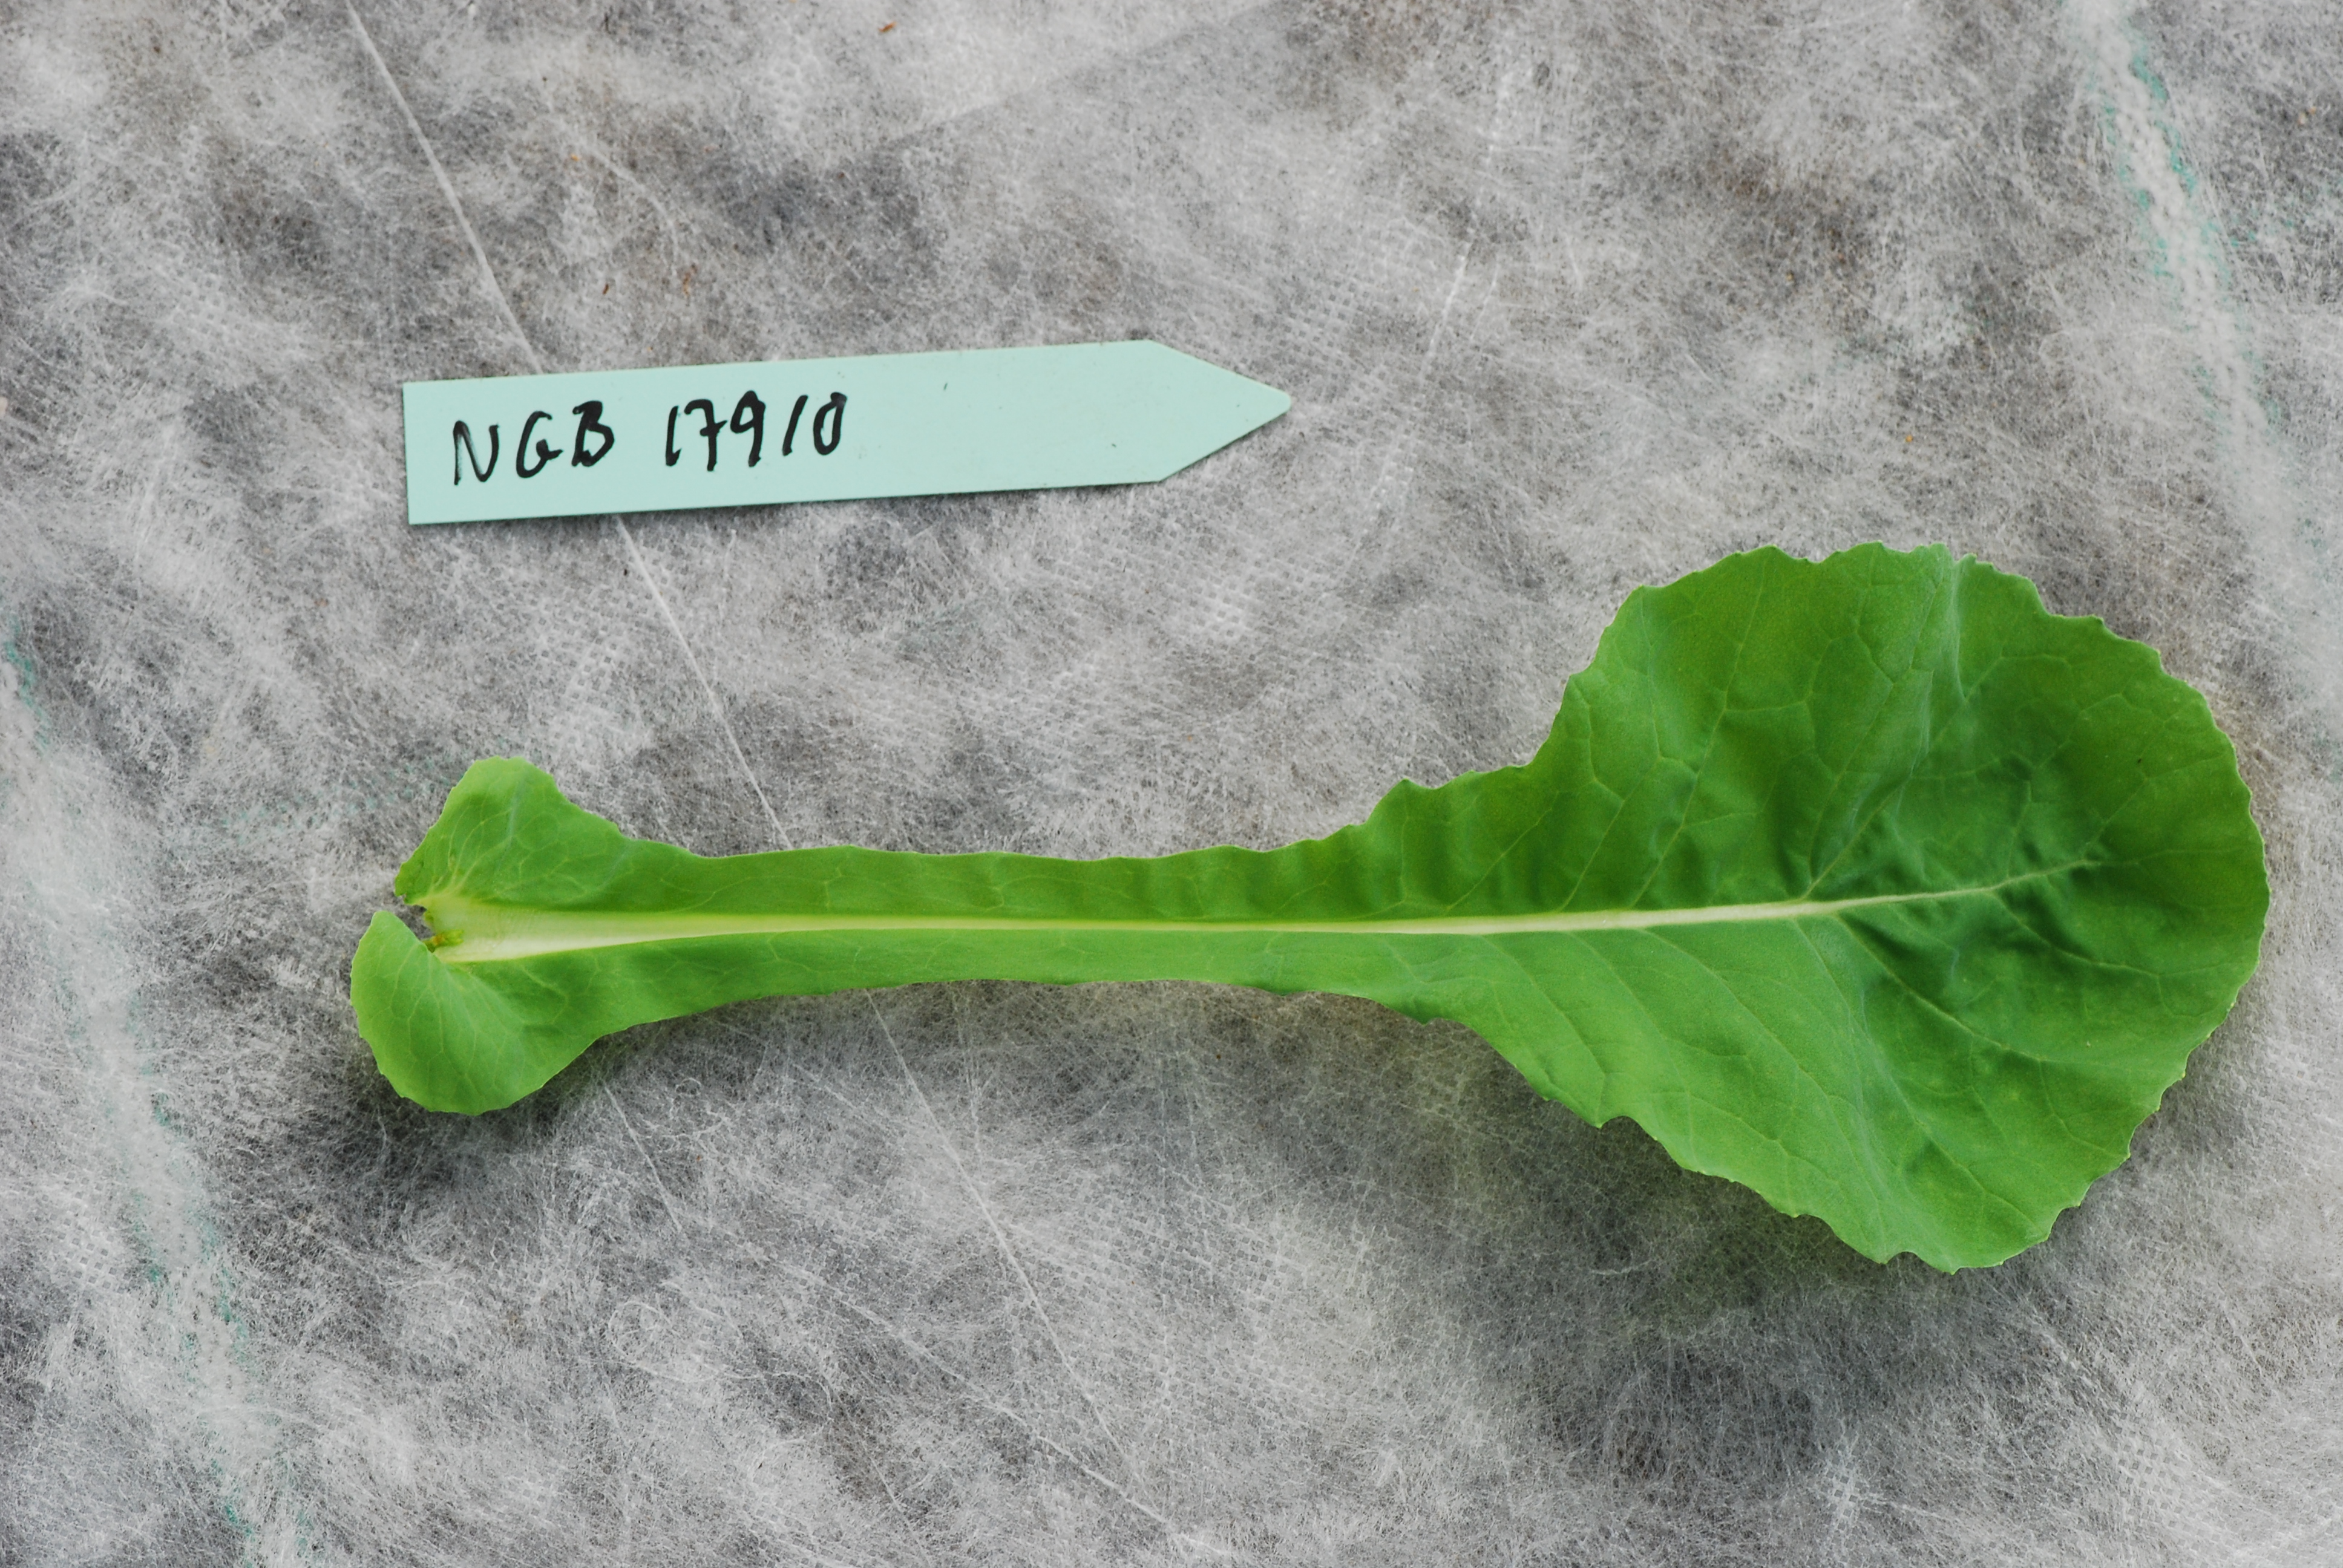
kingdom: Plantae
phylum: Tracheophyta
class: Magnoliopsida
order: Brassicales
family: Brassicaceae
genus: Brassica
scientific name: Brassica napus
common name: Rape
